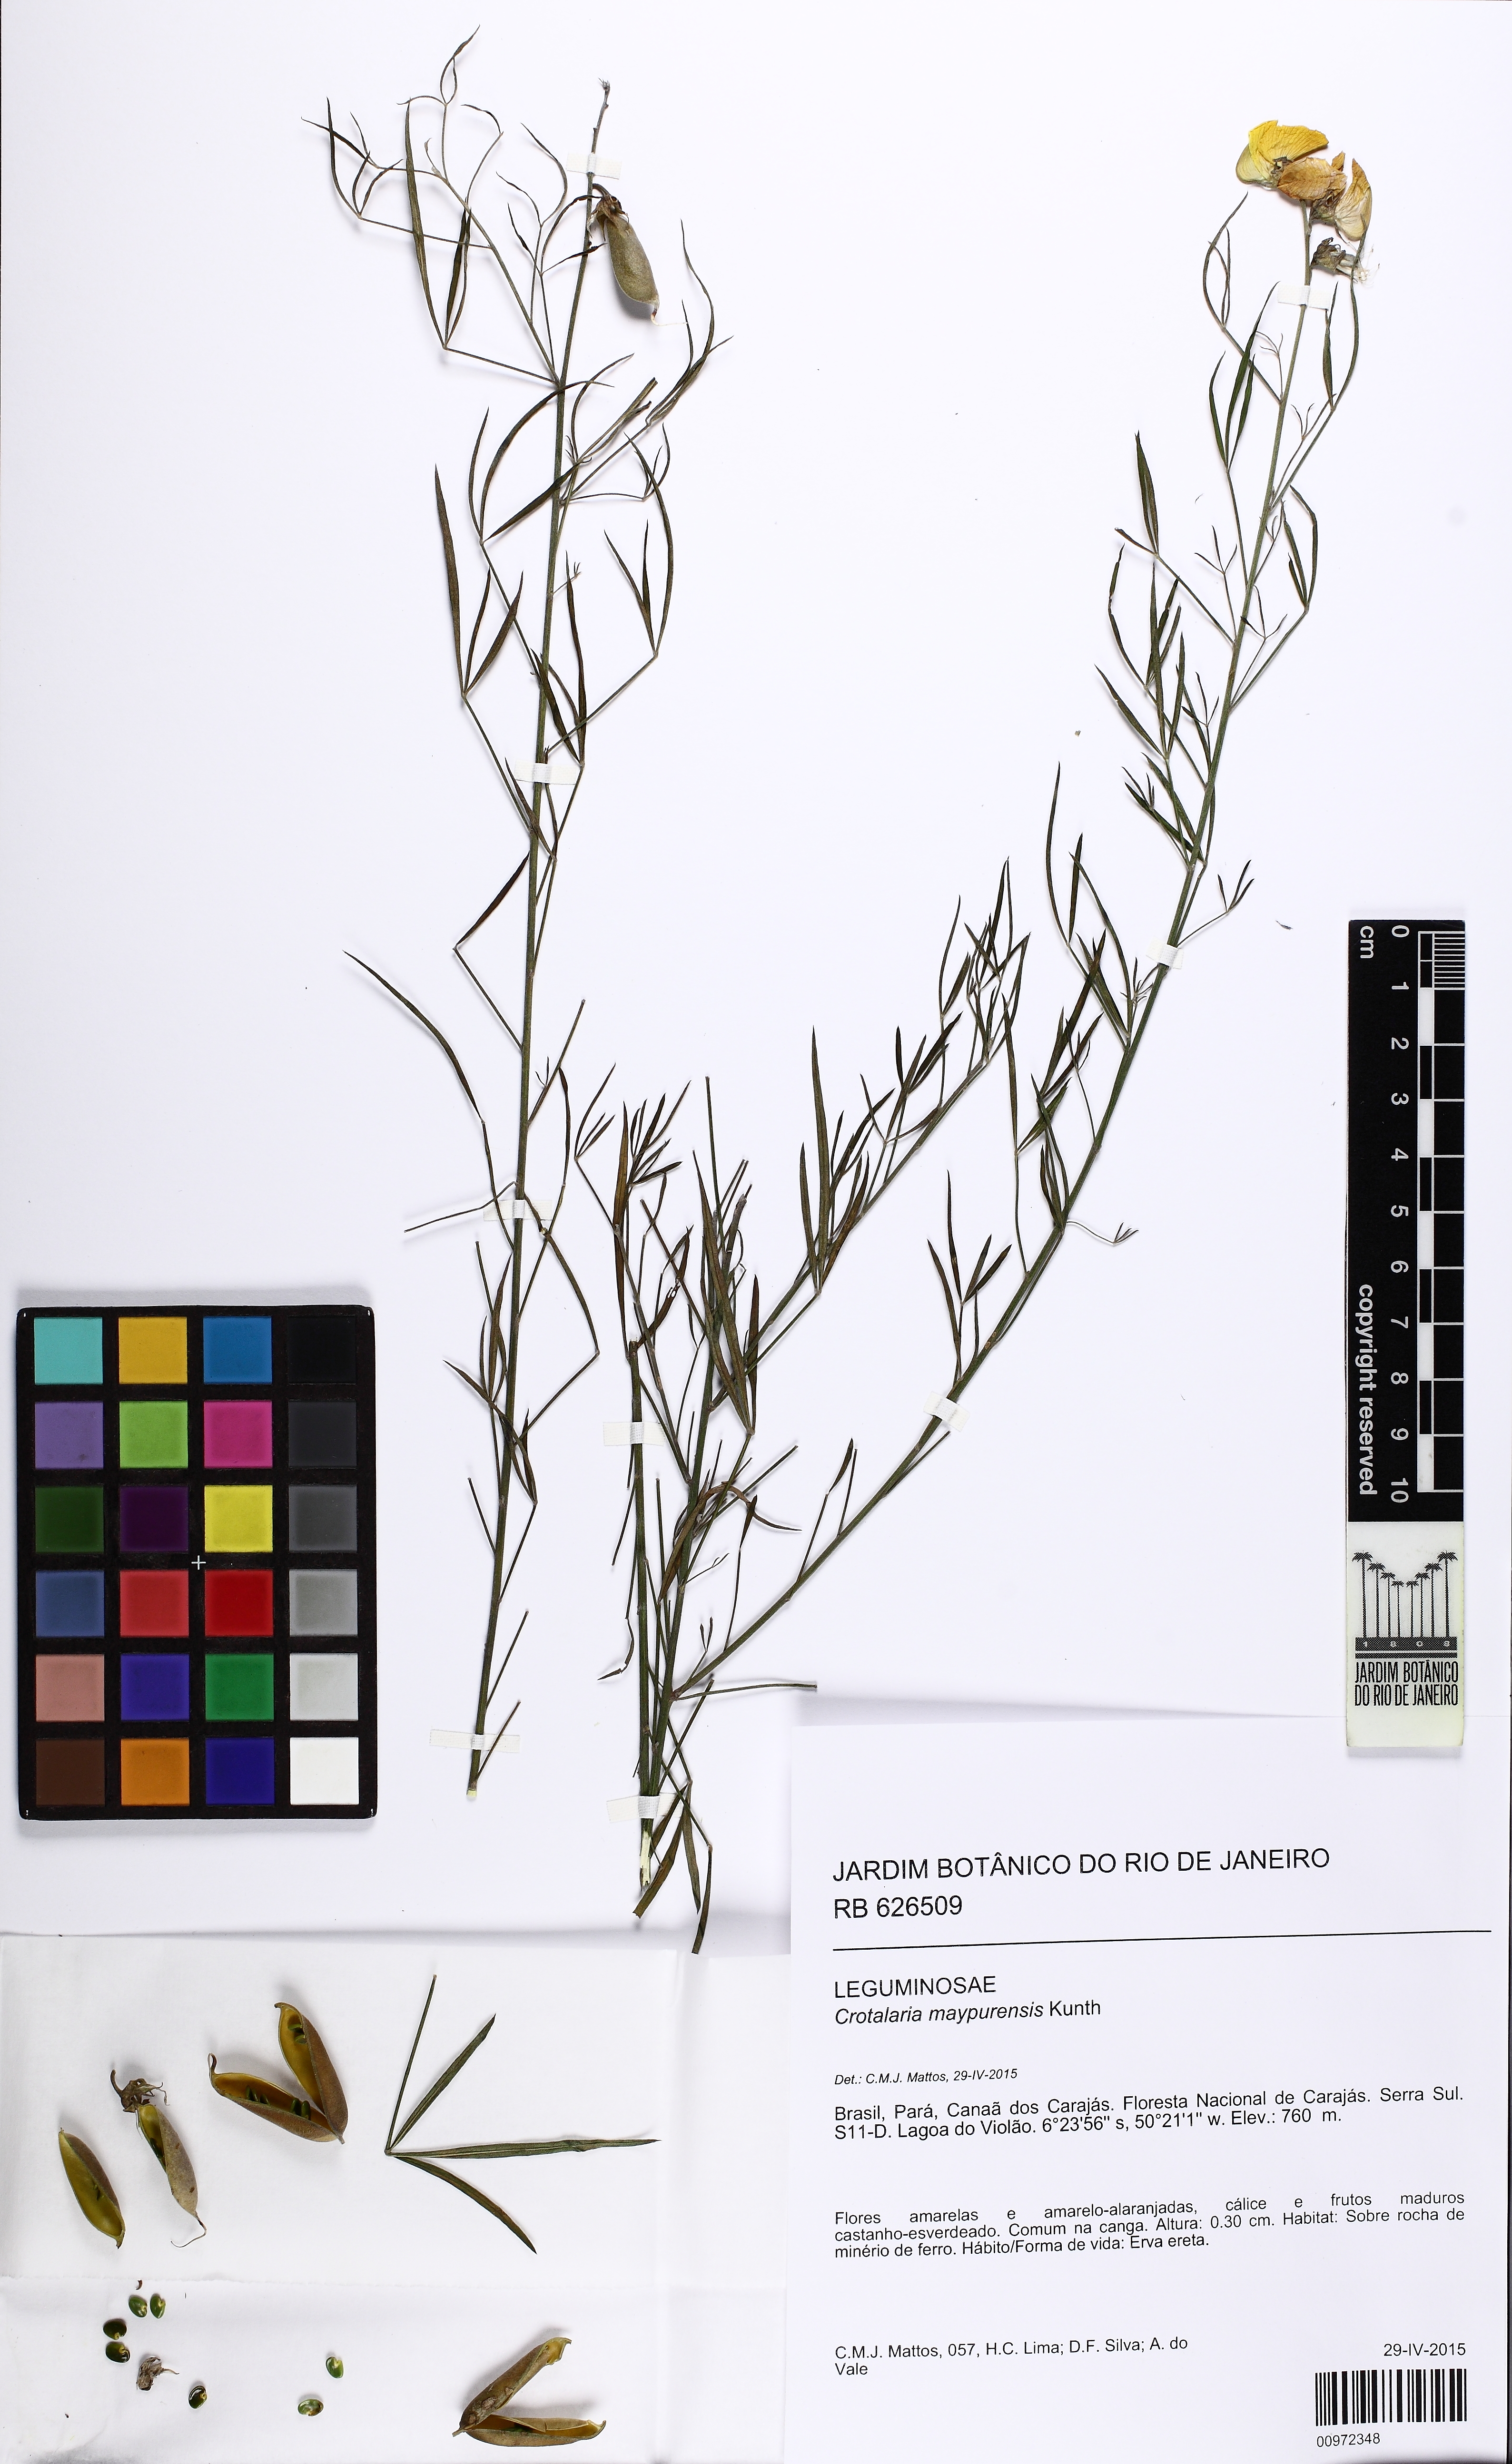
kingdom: Plantae
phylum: Tracheophyta
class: Magnoliopsida
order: Fabales
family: Fabaceae
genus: Crotalaria
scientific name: Crotalaria maypurensis
